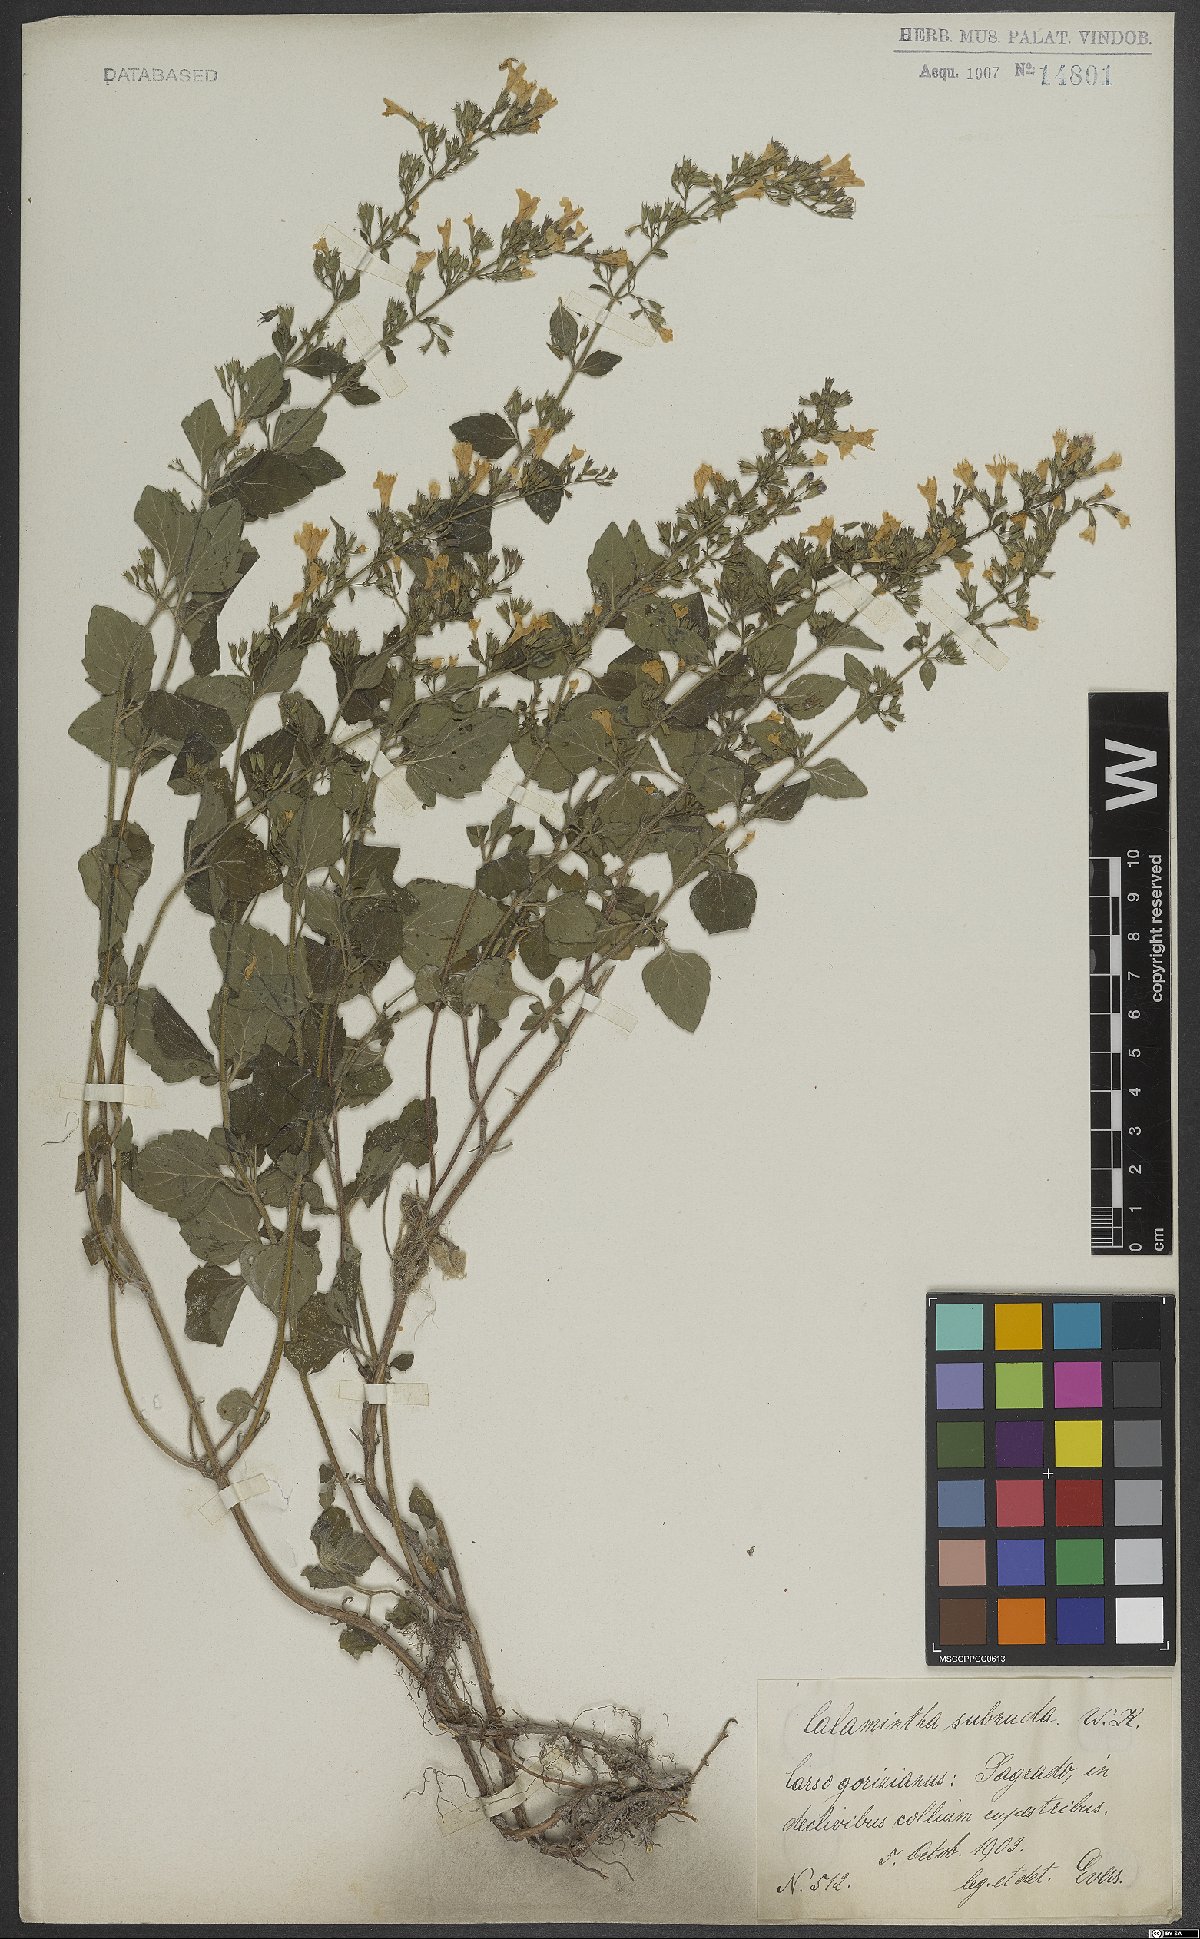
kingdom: Plantae
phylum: Tracheophyta
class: Magnoliopsida
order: Lamiales
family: Lamiaceae
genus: Clinopodium
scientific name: Clinopodium nepeta
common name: Lesser calamint
